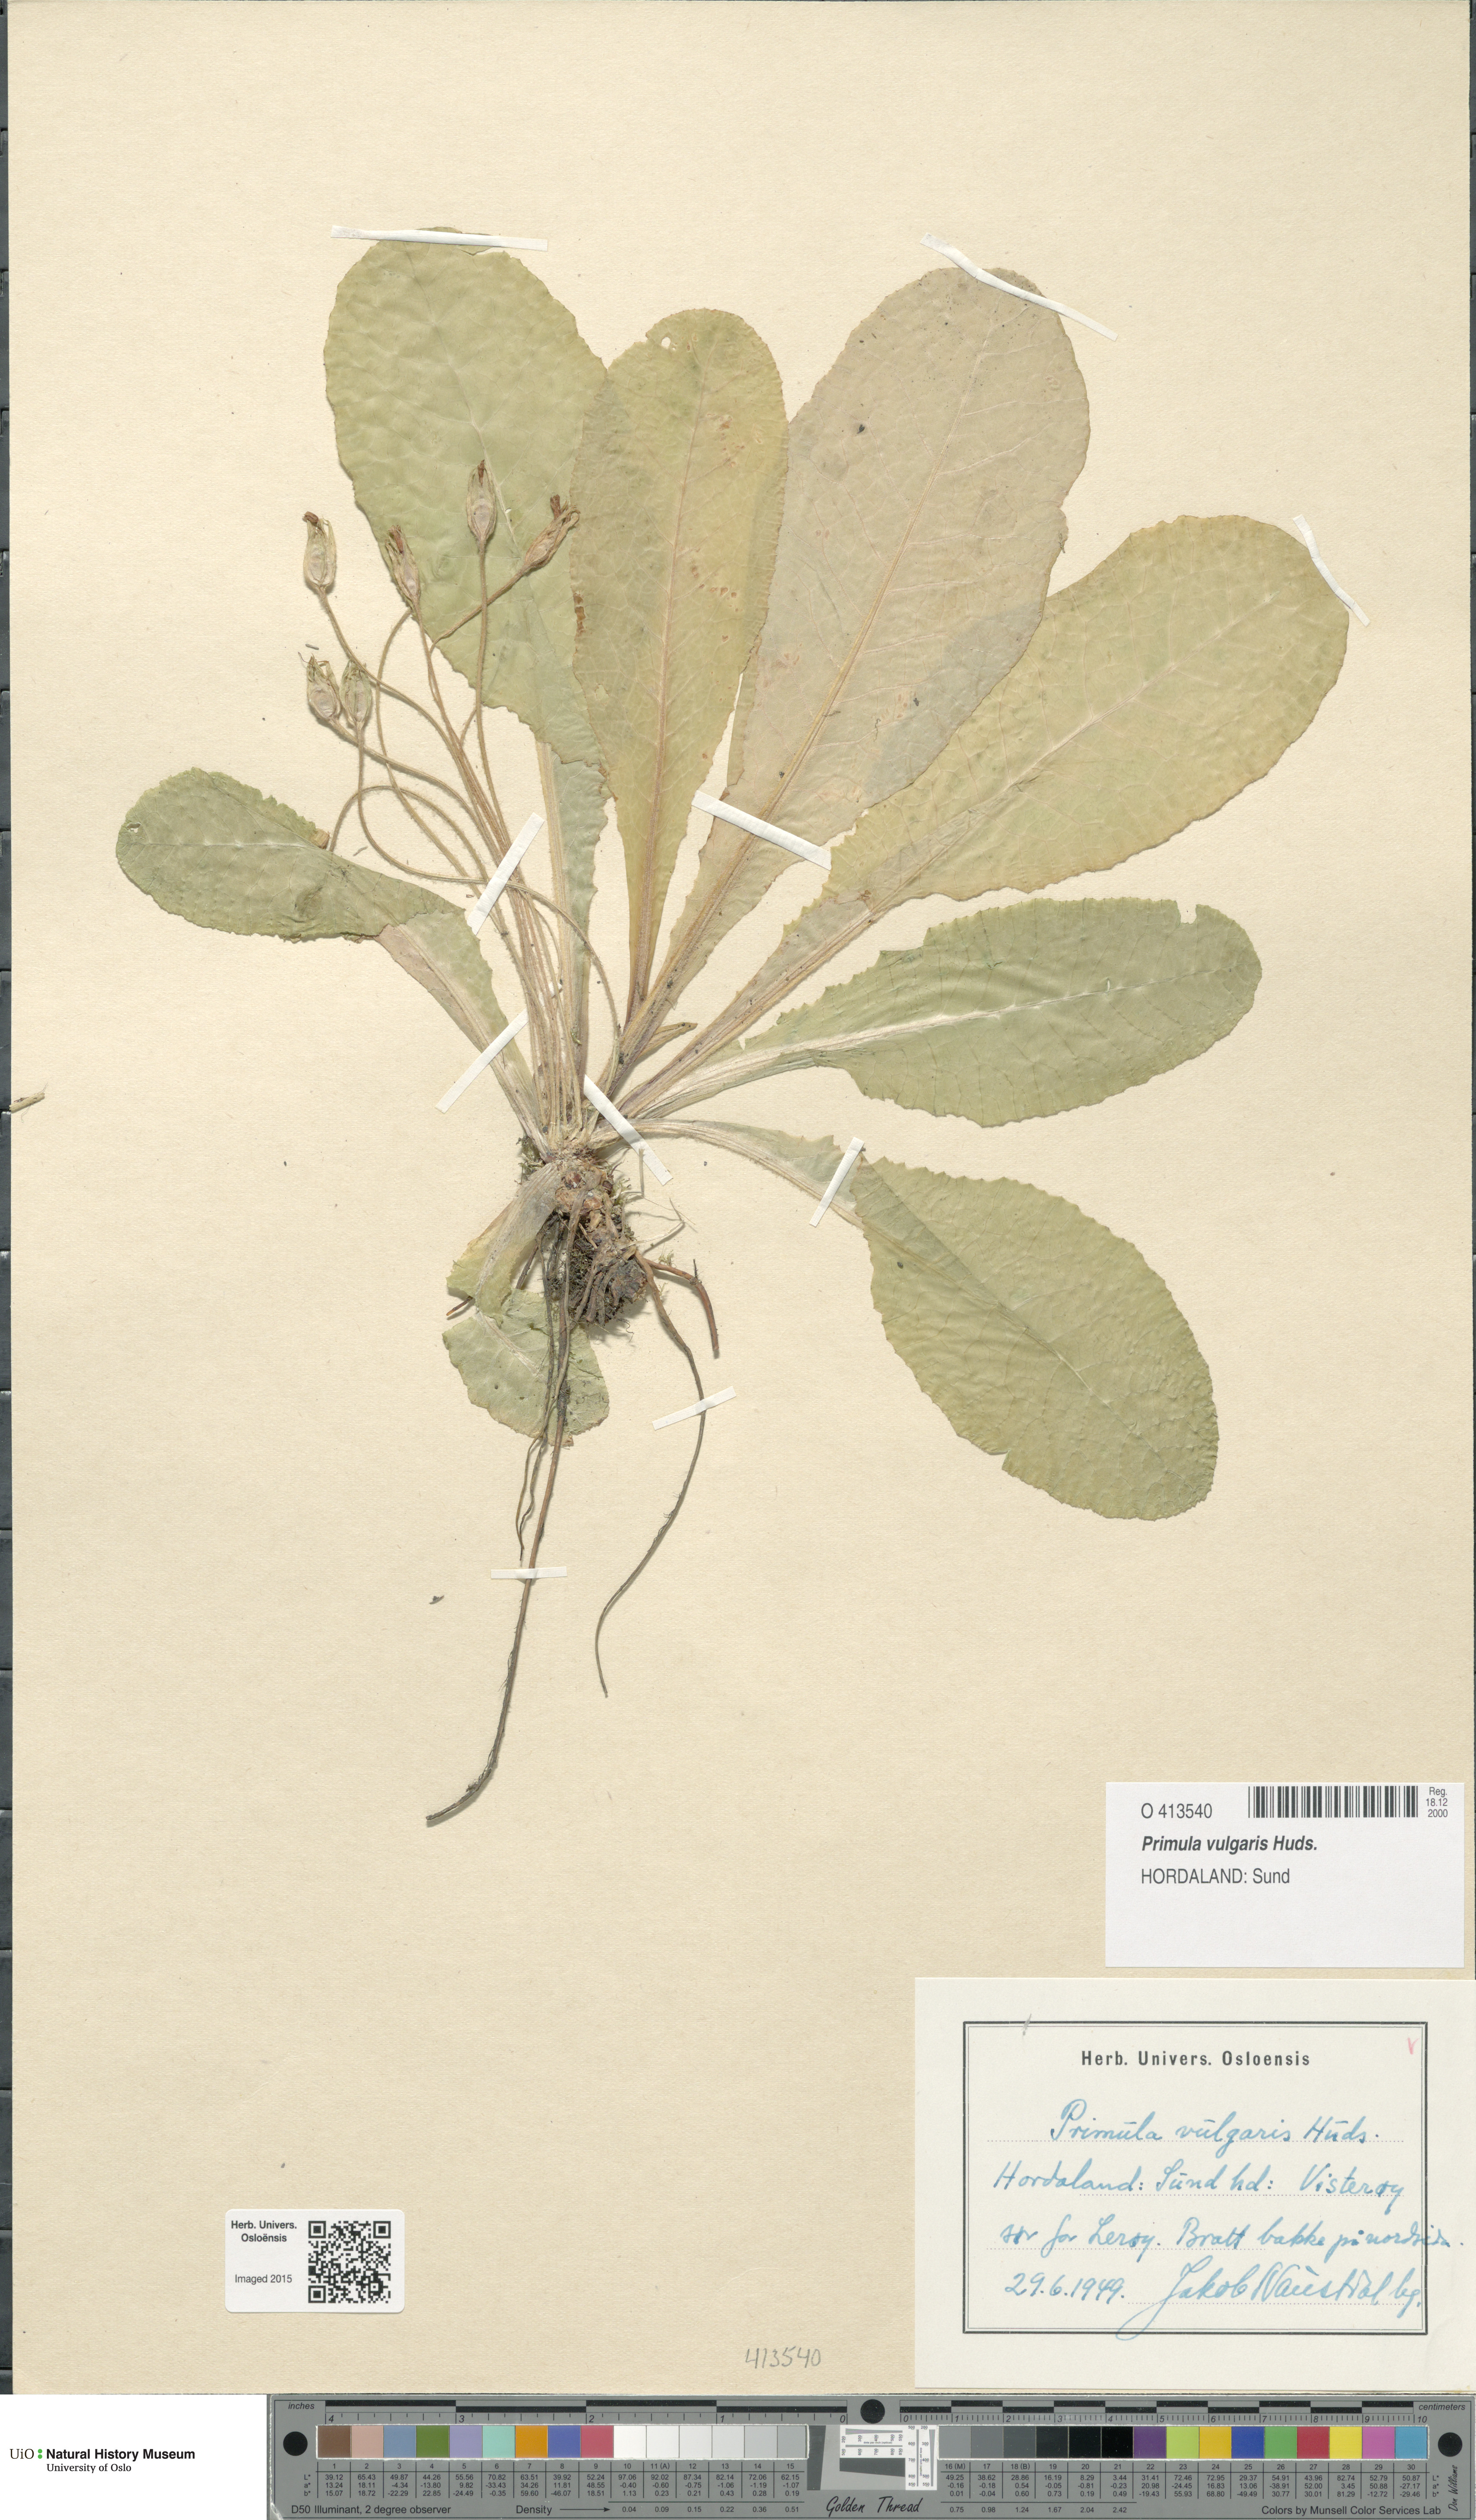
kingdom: Plantae
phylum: Tracheophyta
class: Magnoliopsida
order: Ericales
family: Primulaceae
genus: Primula
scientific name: Primula vulgaris
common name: Primrose
